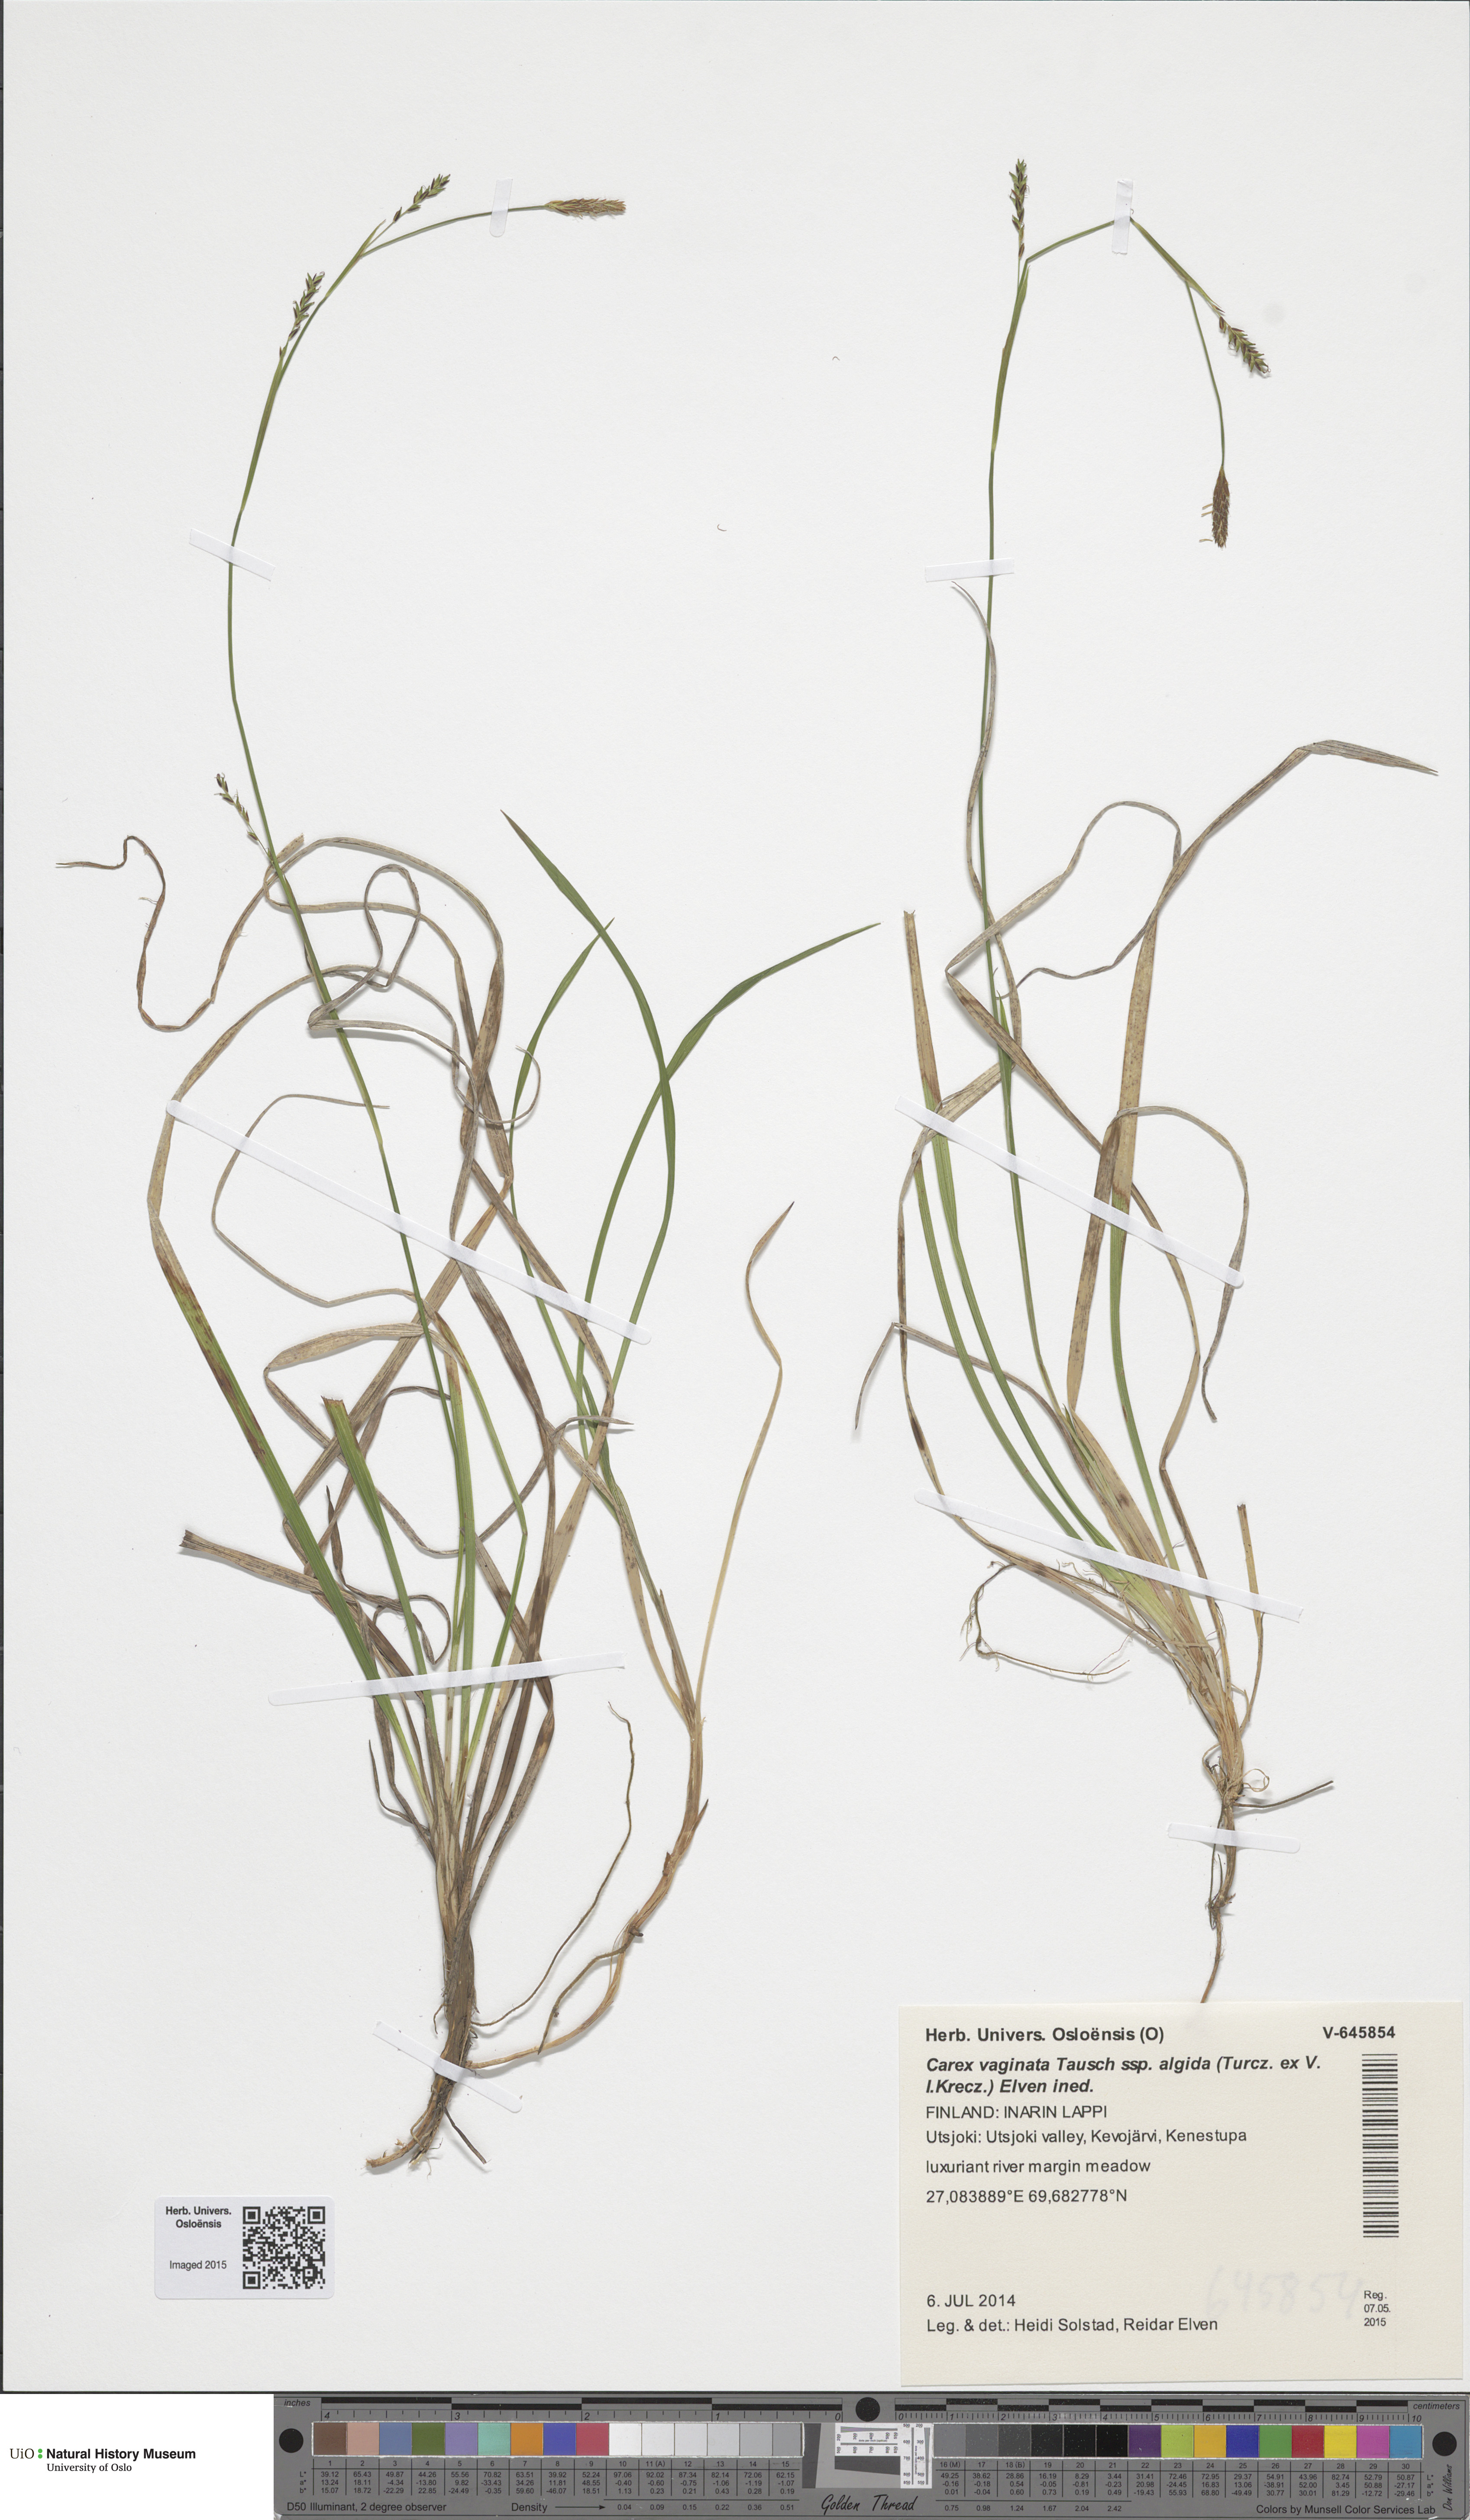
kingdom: Plantae
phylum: Tracheophyta
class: Liliopsida
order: Poales
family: Cyperaceae
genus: Carex
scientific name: Carex algida
